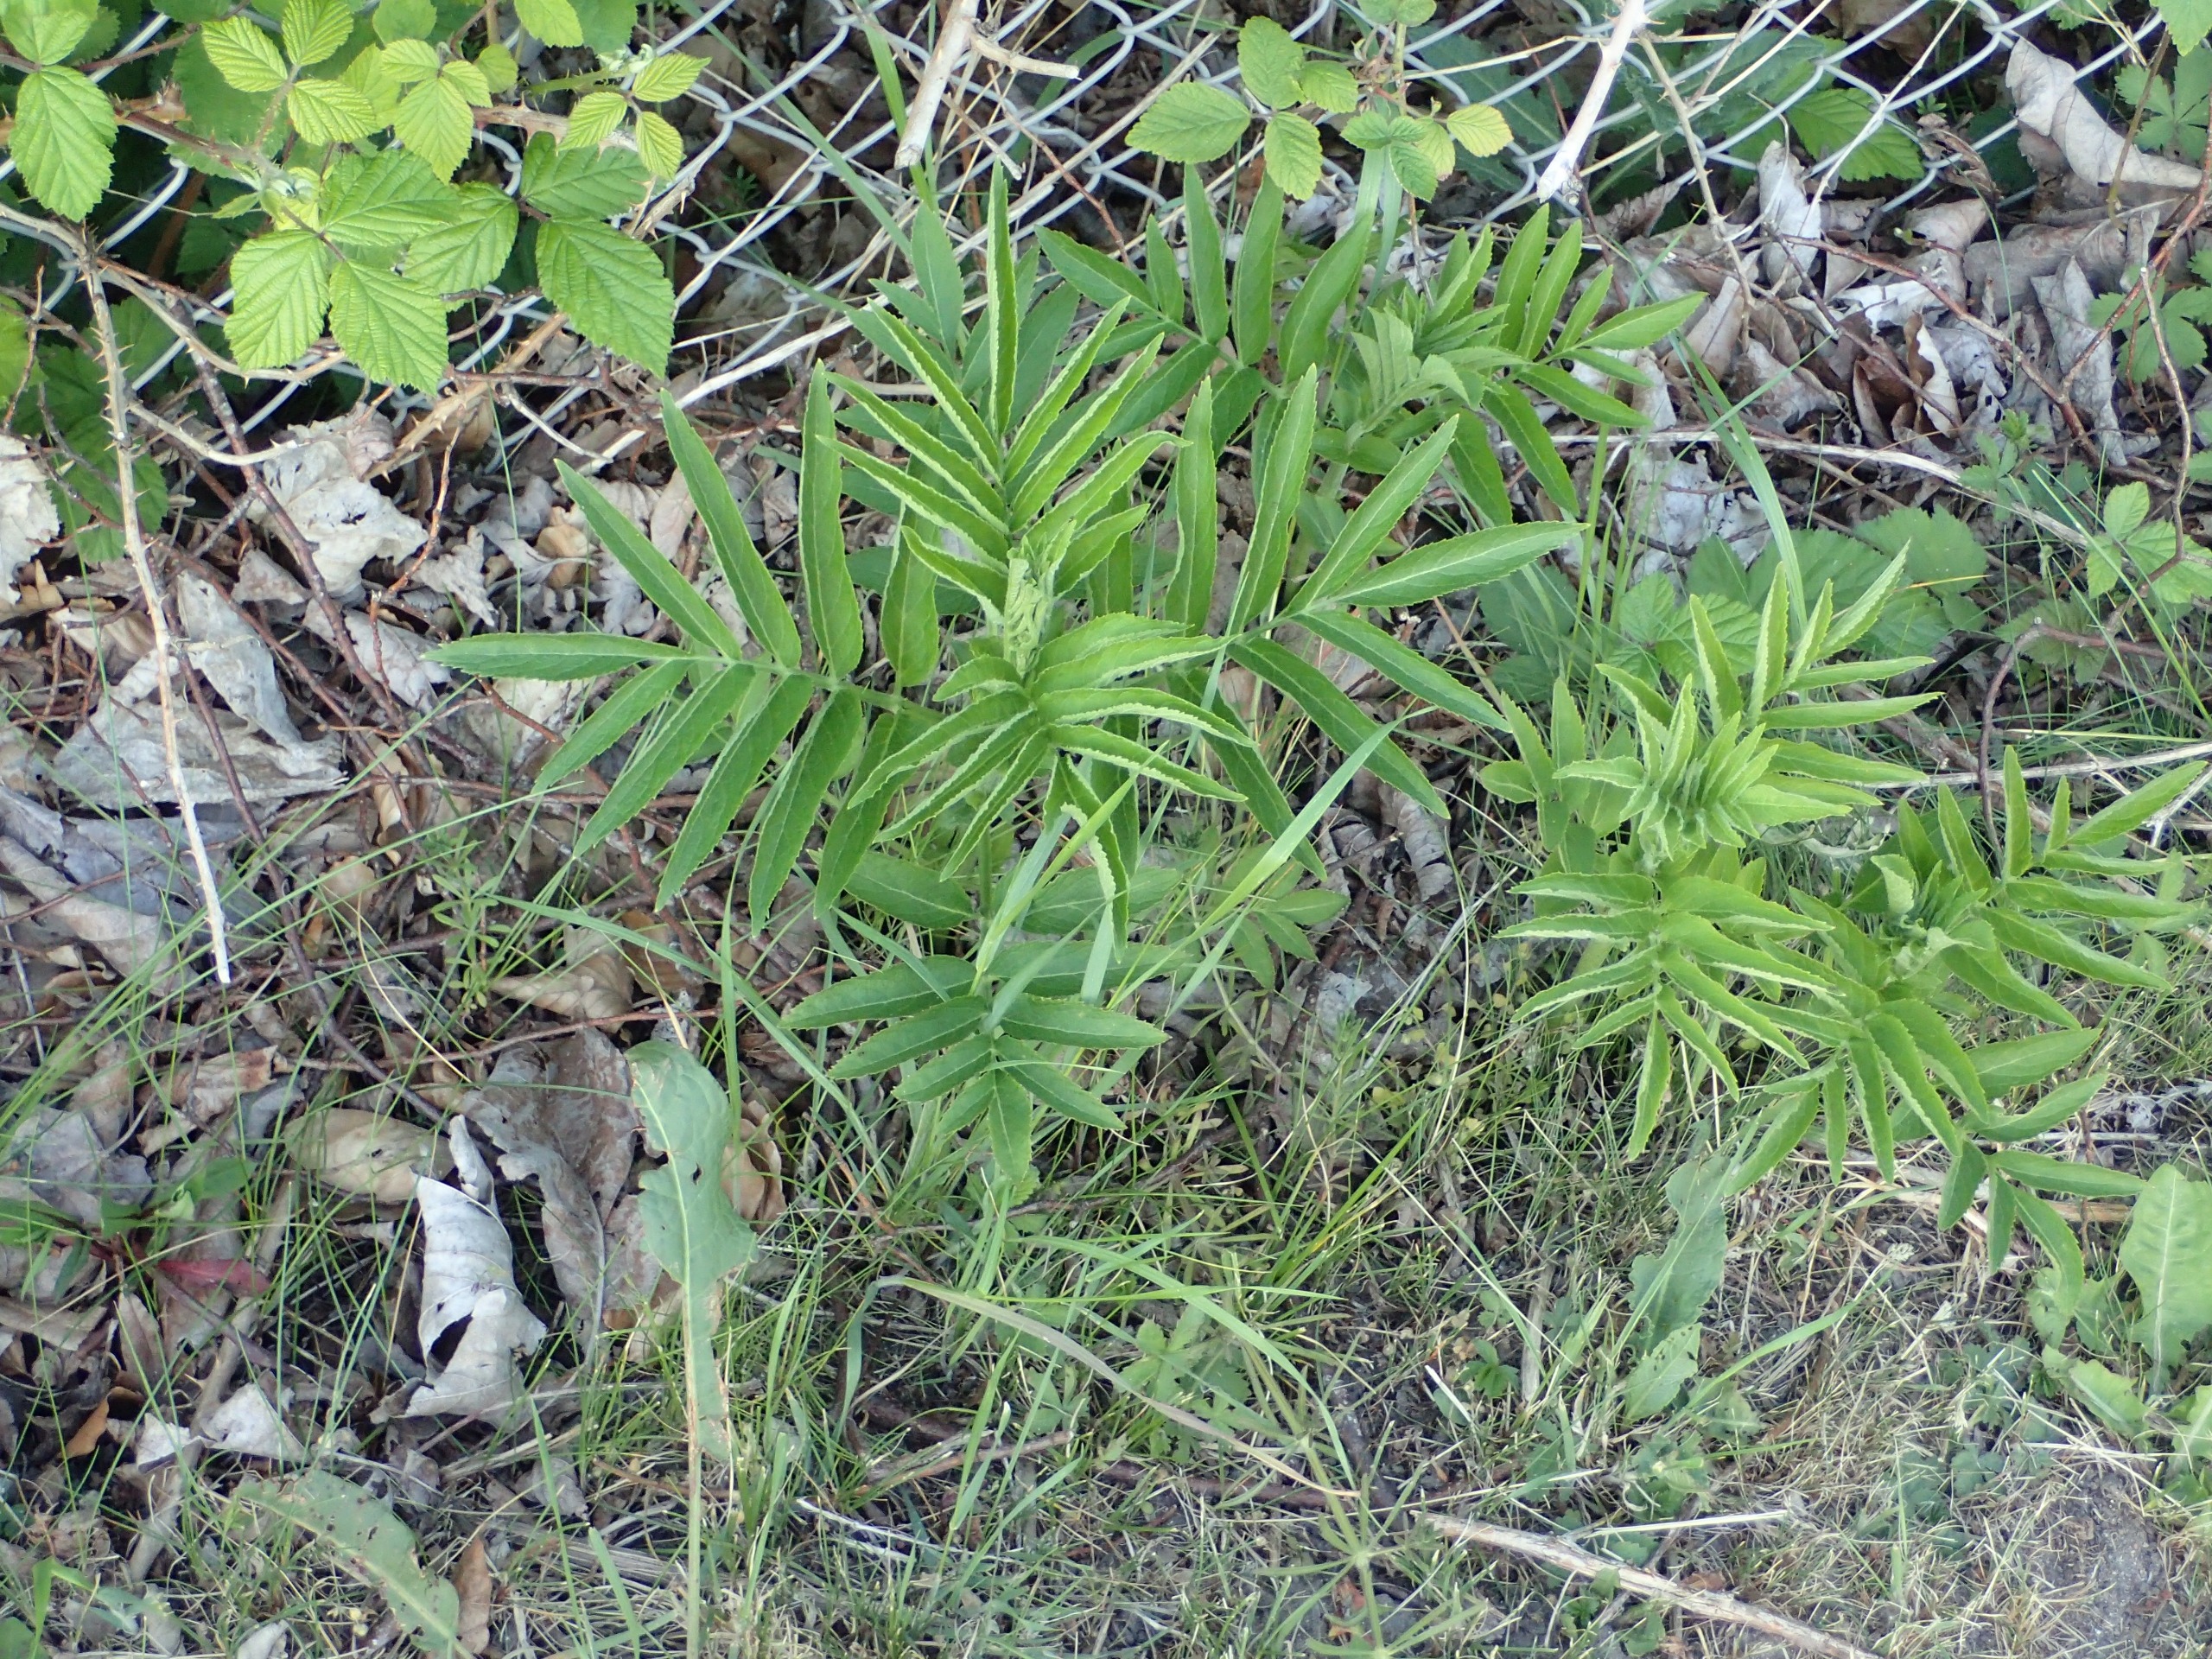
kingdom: Plantae
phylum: Tracheophyta
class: Magnoliopsida
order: Dipsacales
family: Viburnaceae
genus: Sambucus
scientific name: Sambucus ebulus
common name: Sommer-hyld
